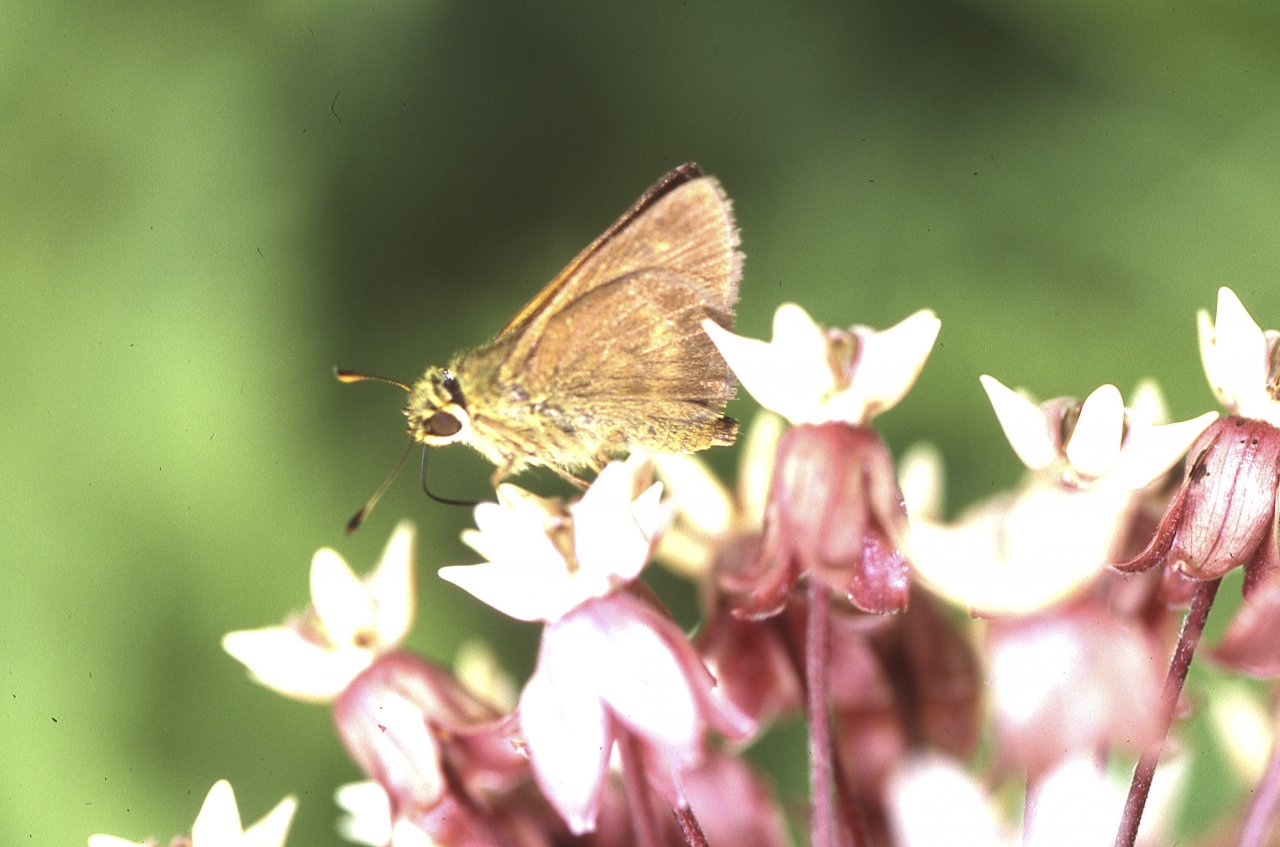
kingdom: Animalia
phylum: Arthropoda
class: Insecta
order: Lepidoptera
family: Hesperiidae
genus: Euphyes
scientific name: Euphyes vestris
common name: Dun Skipper
